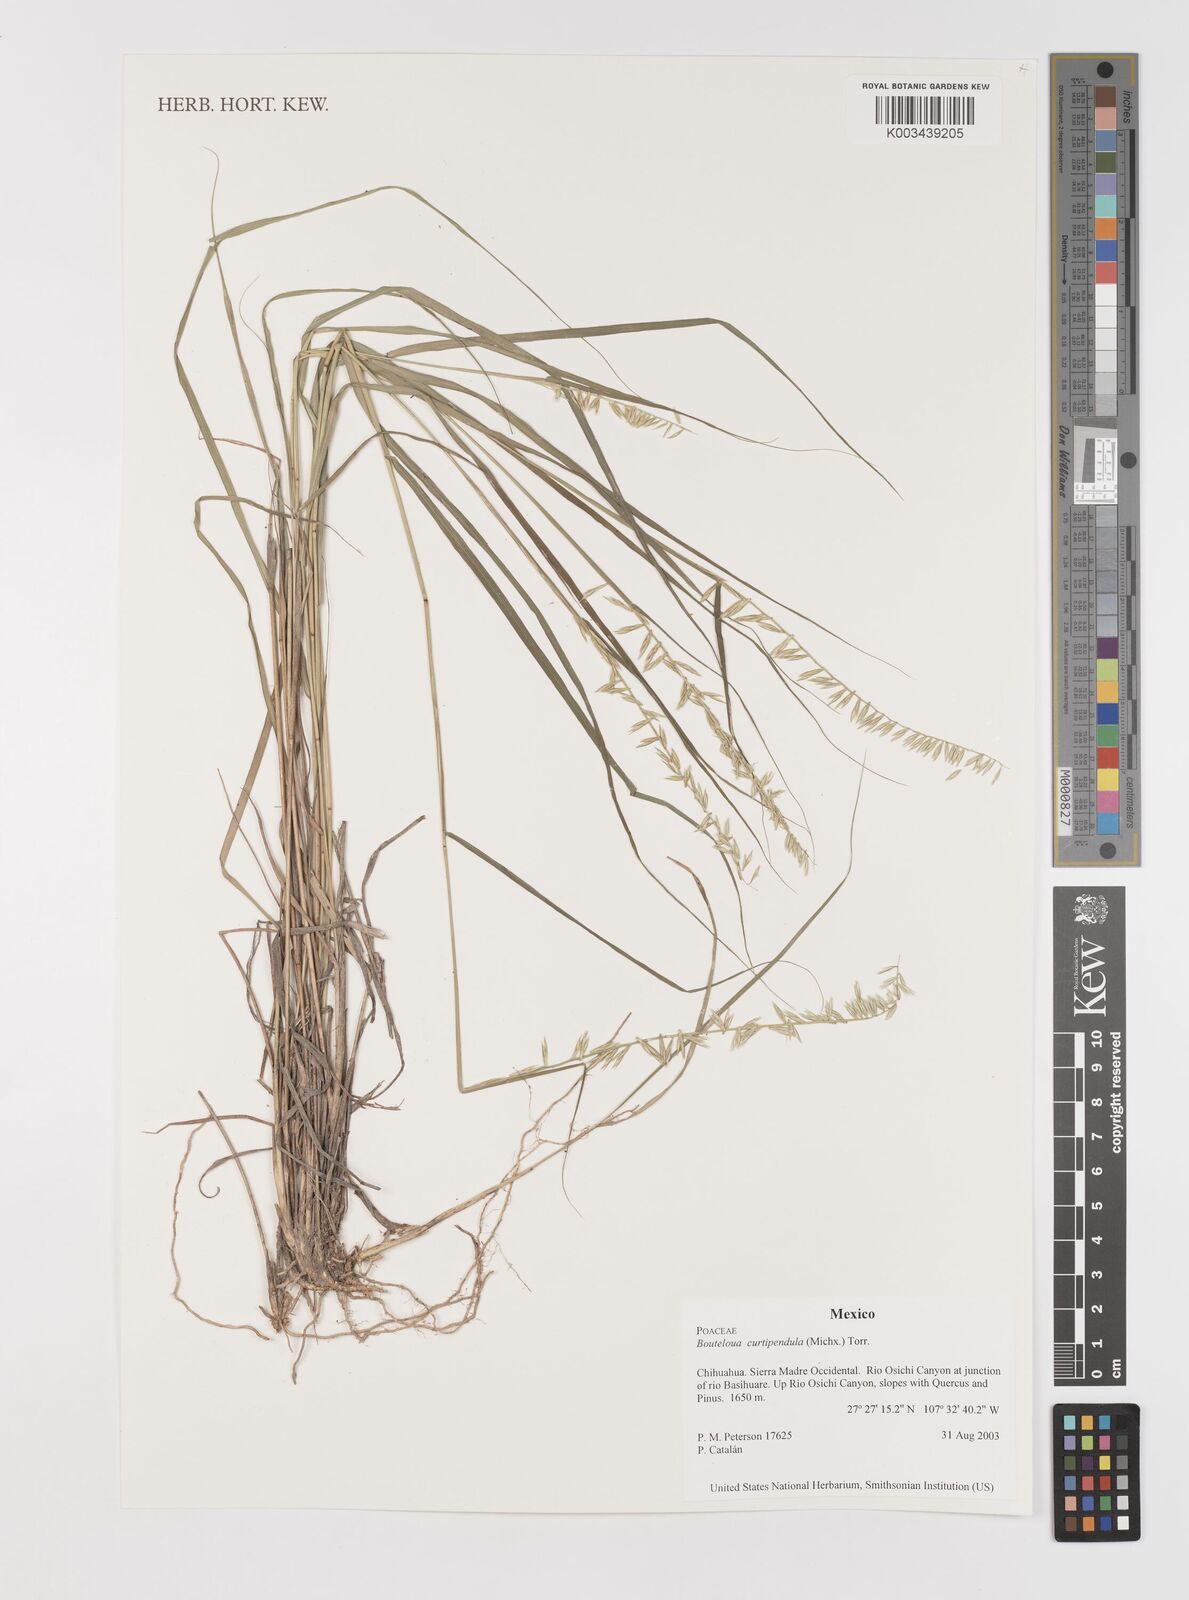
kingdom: Plantae
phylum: Tracheophyta
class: Liliopsida
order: Poales
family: Poaceae
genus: Bouteloua
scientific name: Bouteloua curtipendula
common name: Side-oats grama
